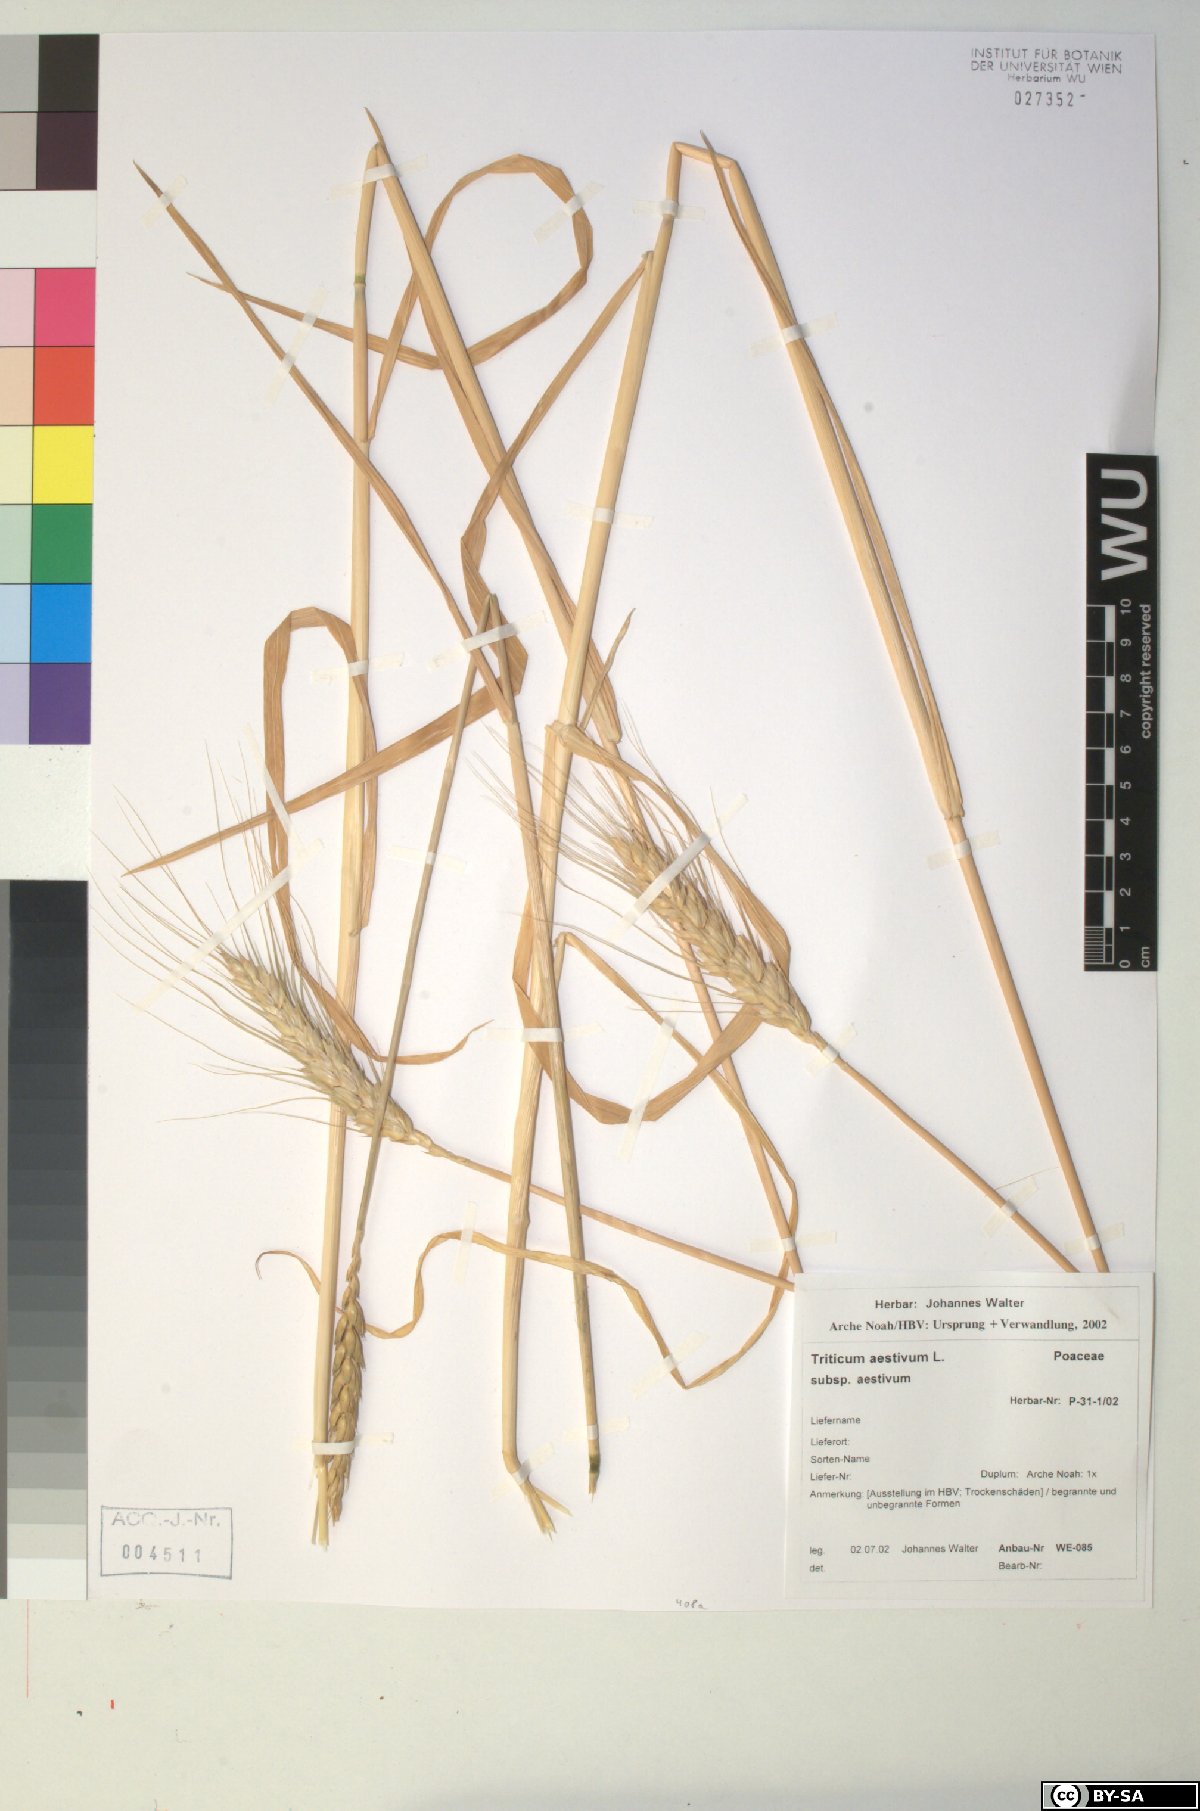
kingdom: Plantae
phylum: Tracheophyta
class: Liliopsida
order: Poales
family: Poaceae
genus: Triticum
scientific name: Triticum aestivum
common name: Common wheat
